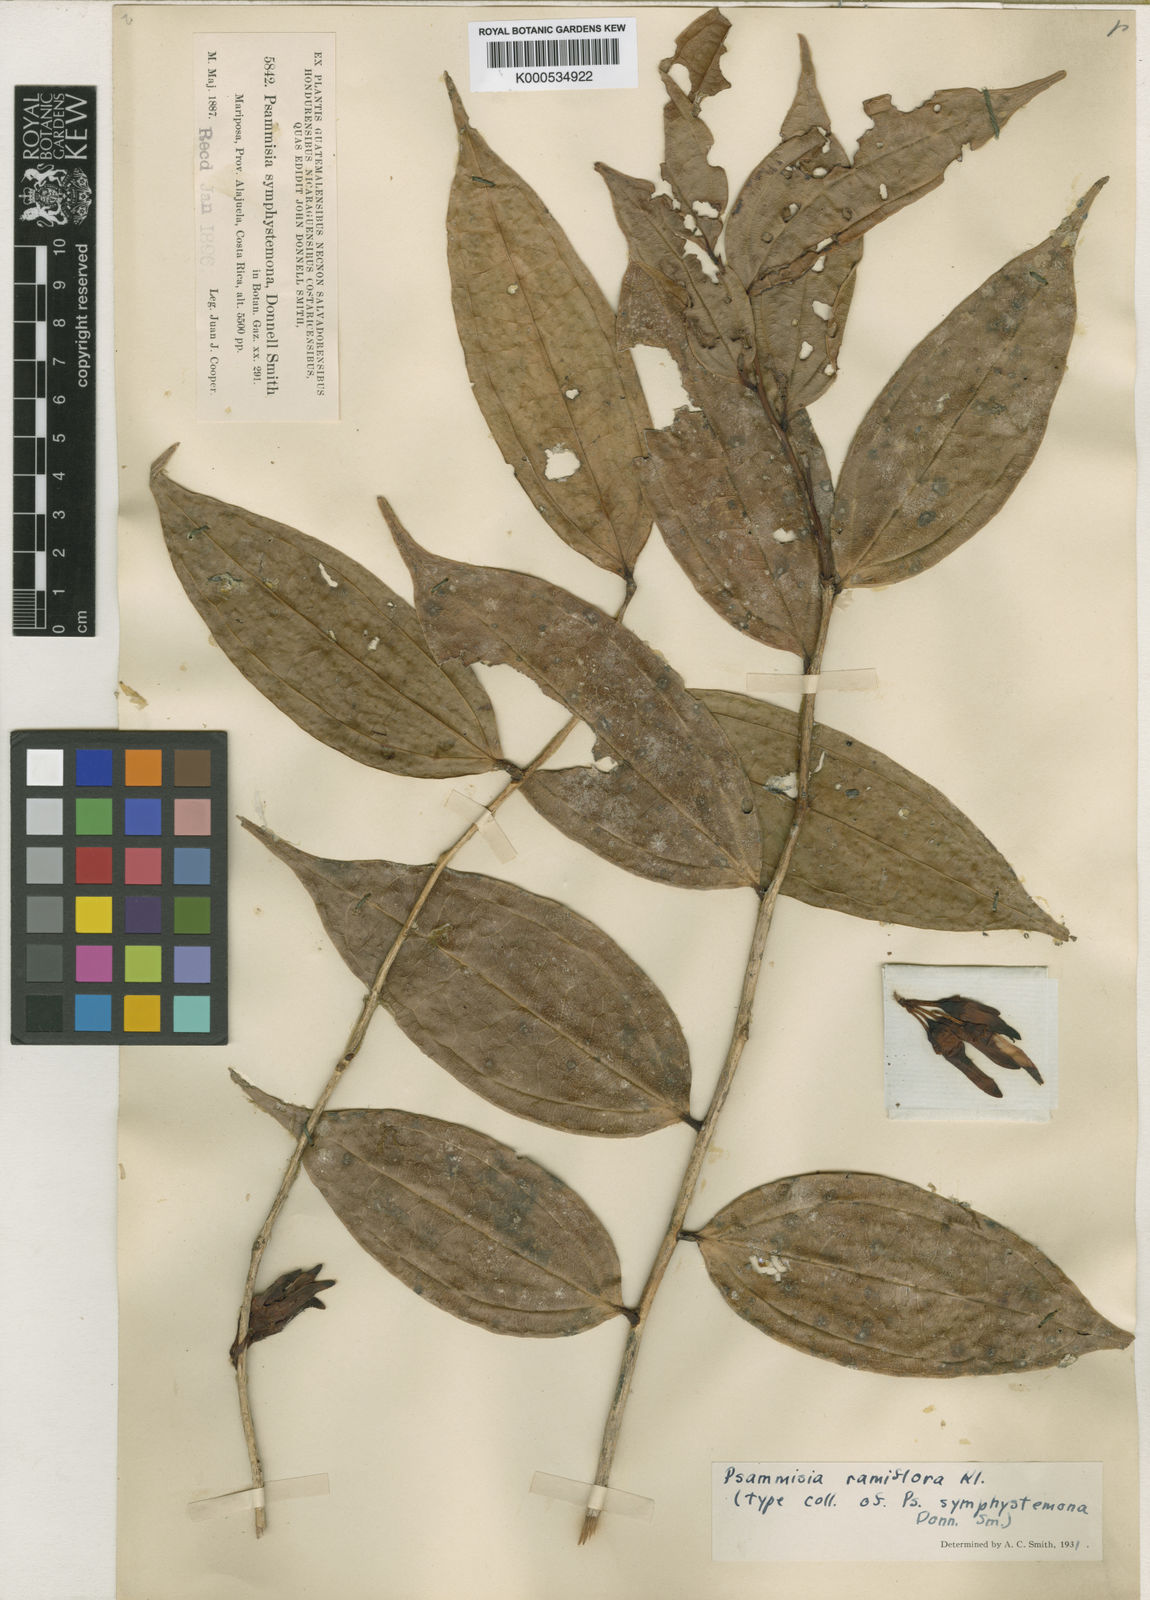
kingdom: Plantae
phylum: Tracheophyta
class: Magnoliopsida
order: Ericales
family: Ericaceae
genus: Psammisia
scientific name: Psammisia ramiflora
